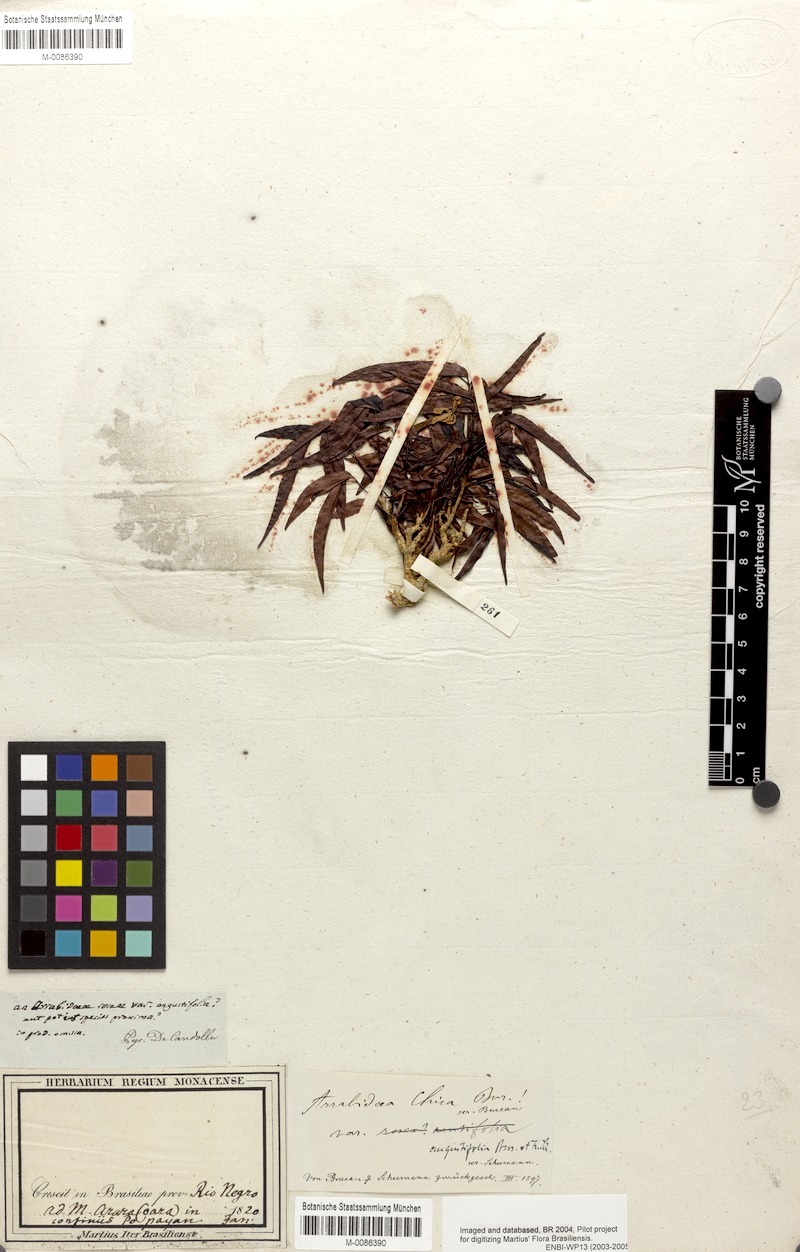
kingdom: Plantae
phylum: Tracheophyta
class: Magnoliopsida
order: Lamiales
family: Bignoniaceae
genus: Fridericia
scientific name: Fridericia chica
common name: Cricketvine
